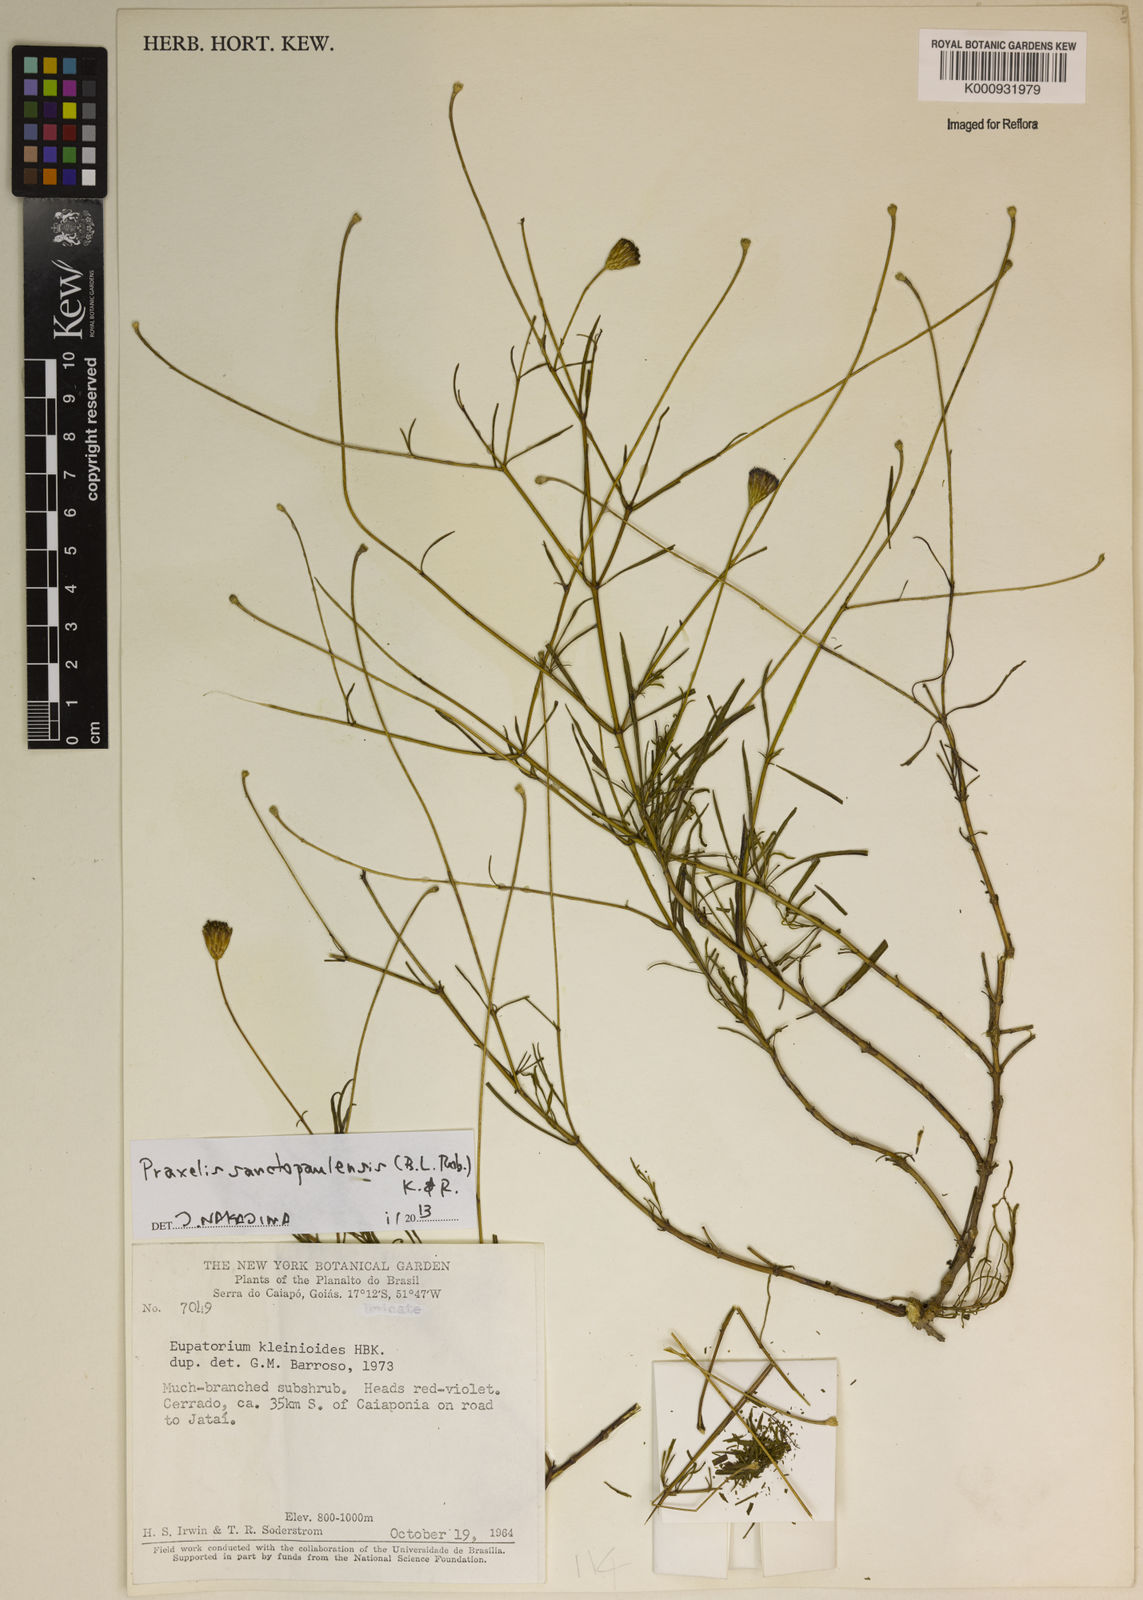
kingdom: Plantae
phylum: Tracheophyta
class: Magnoliopsida
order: Asterales
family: Asteraceae
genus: Praxelis
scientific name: Praxelis sanctopaulensis
